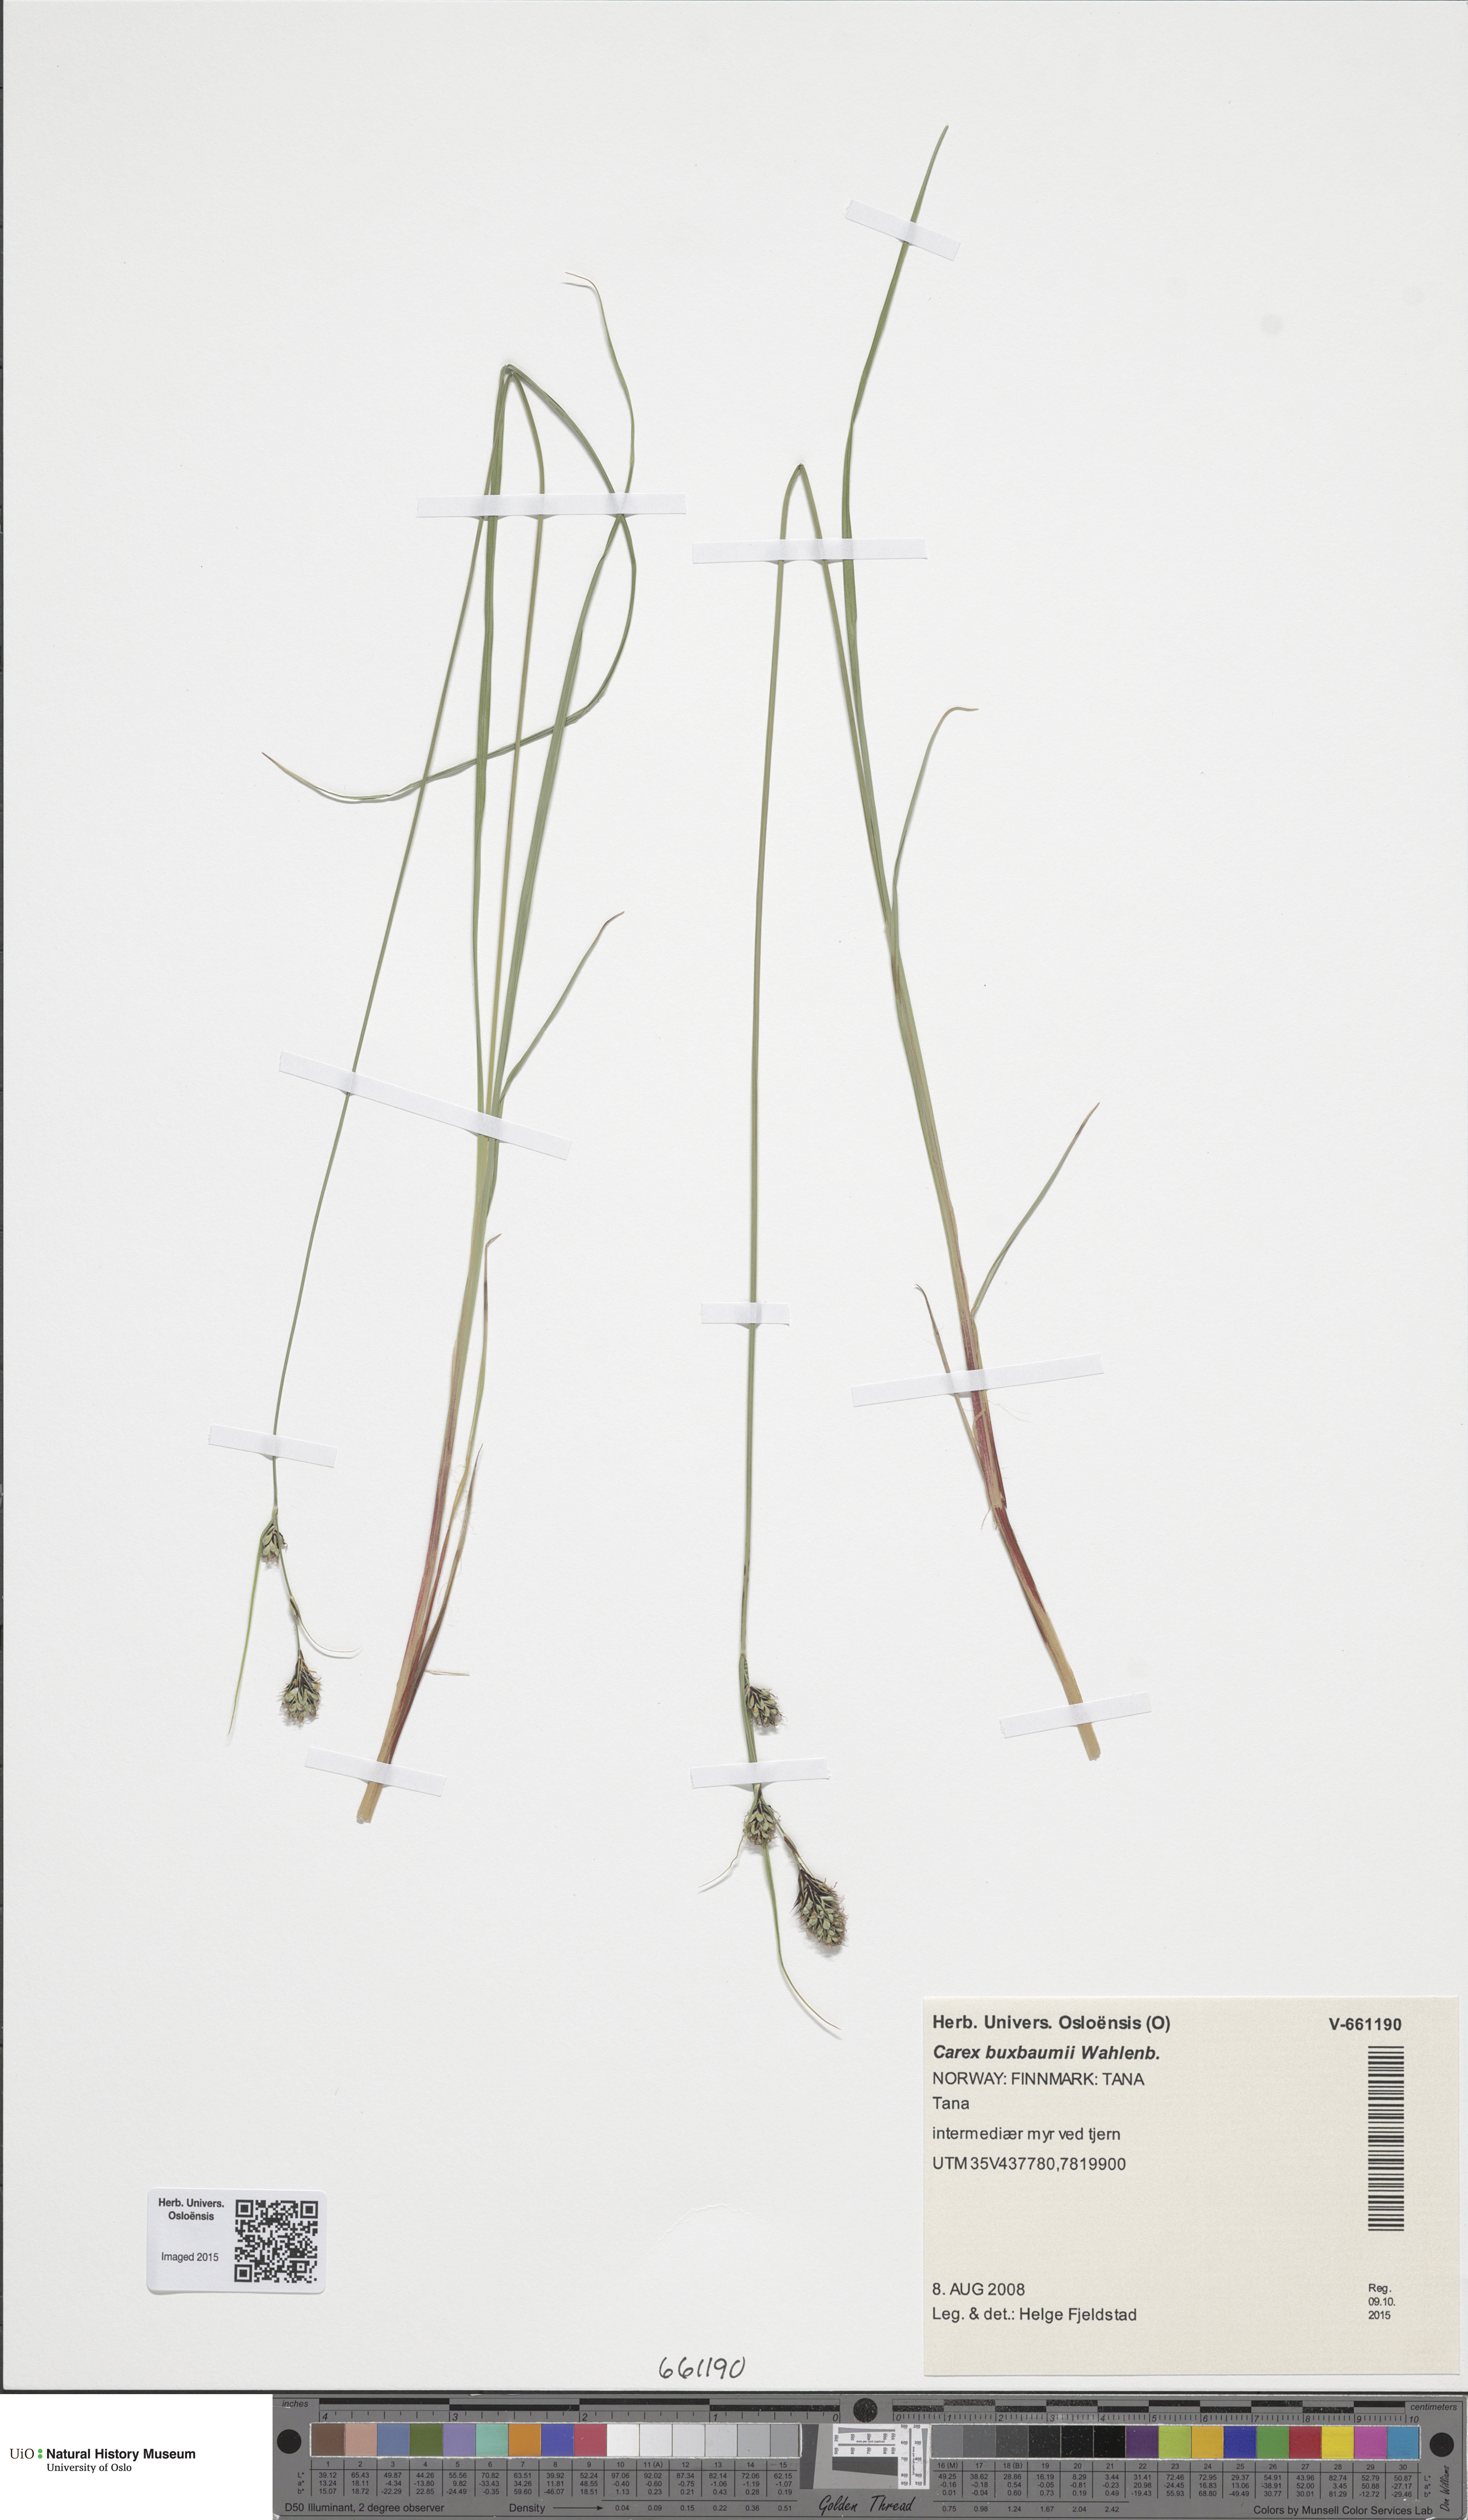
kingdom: Plantae
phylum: Tracheophyta
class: Liliopsida
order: Poales
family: Cyperaceae
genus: Carex
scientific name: Carex buxbaumii
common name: Club sedge
